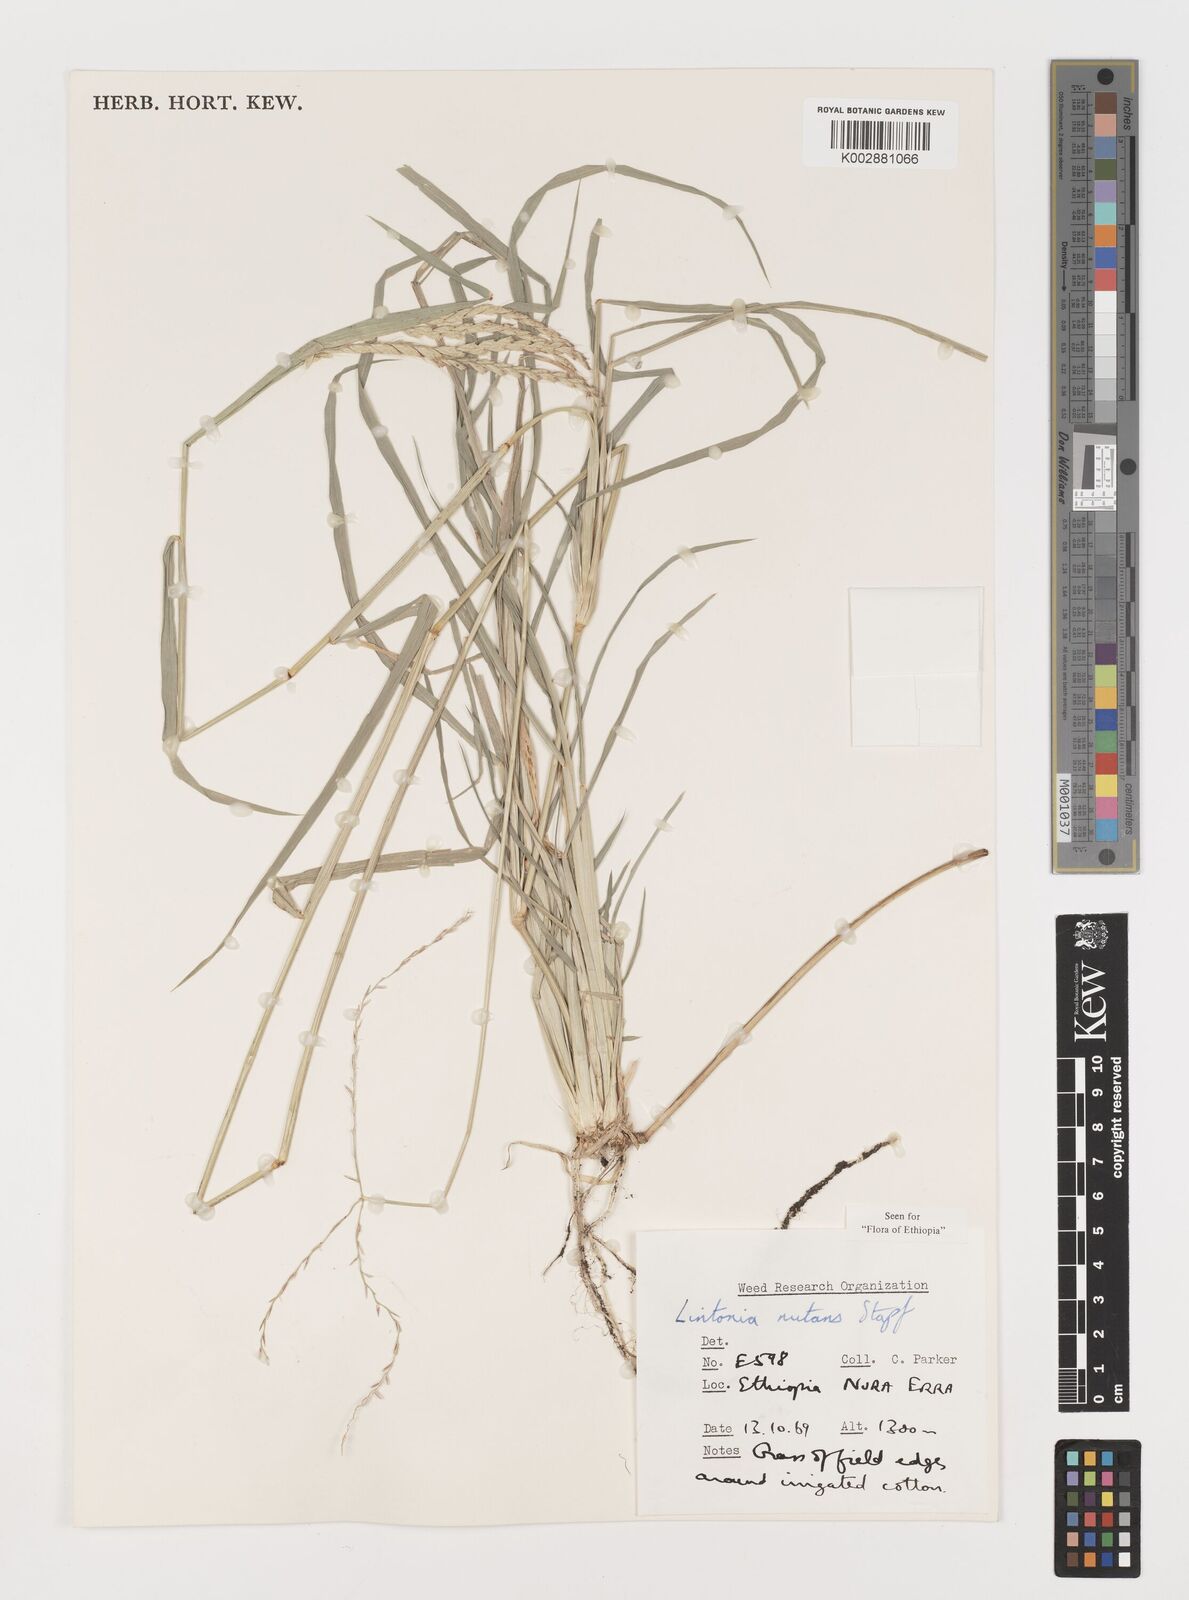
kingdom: Plantae
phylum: Tracheophyta
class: Liliopsida
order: Poales
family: Poaceae
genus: Chloris
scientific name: Chloris nutans
